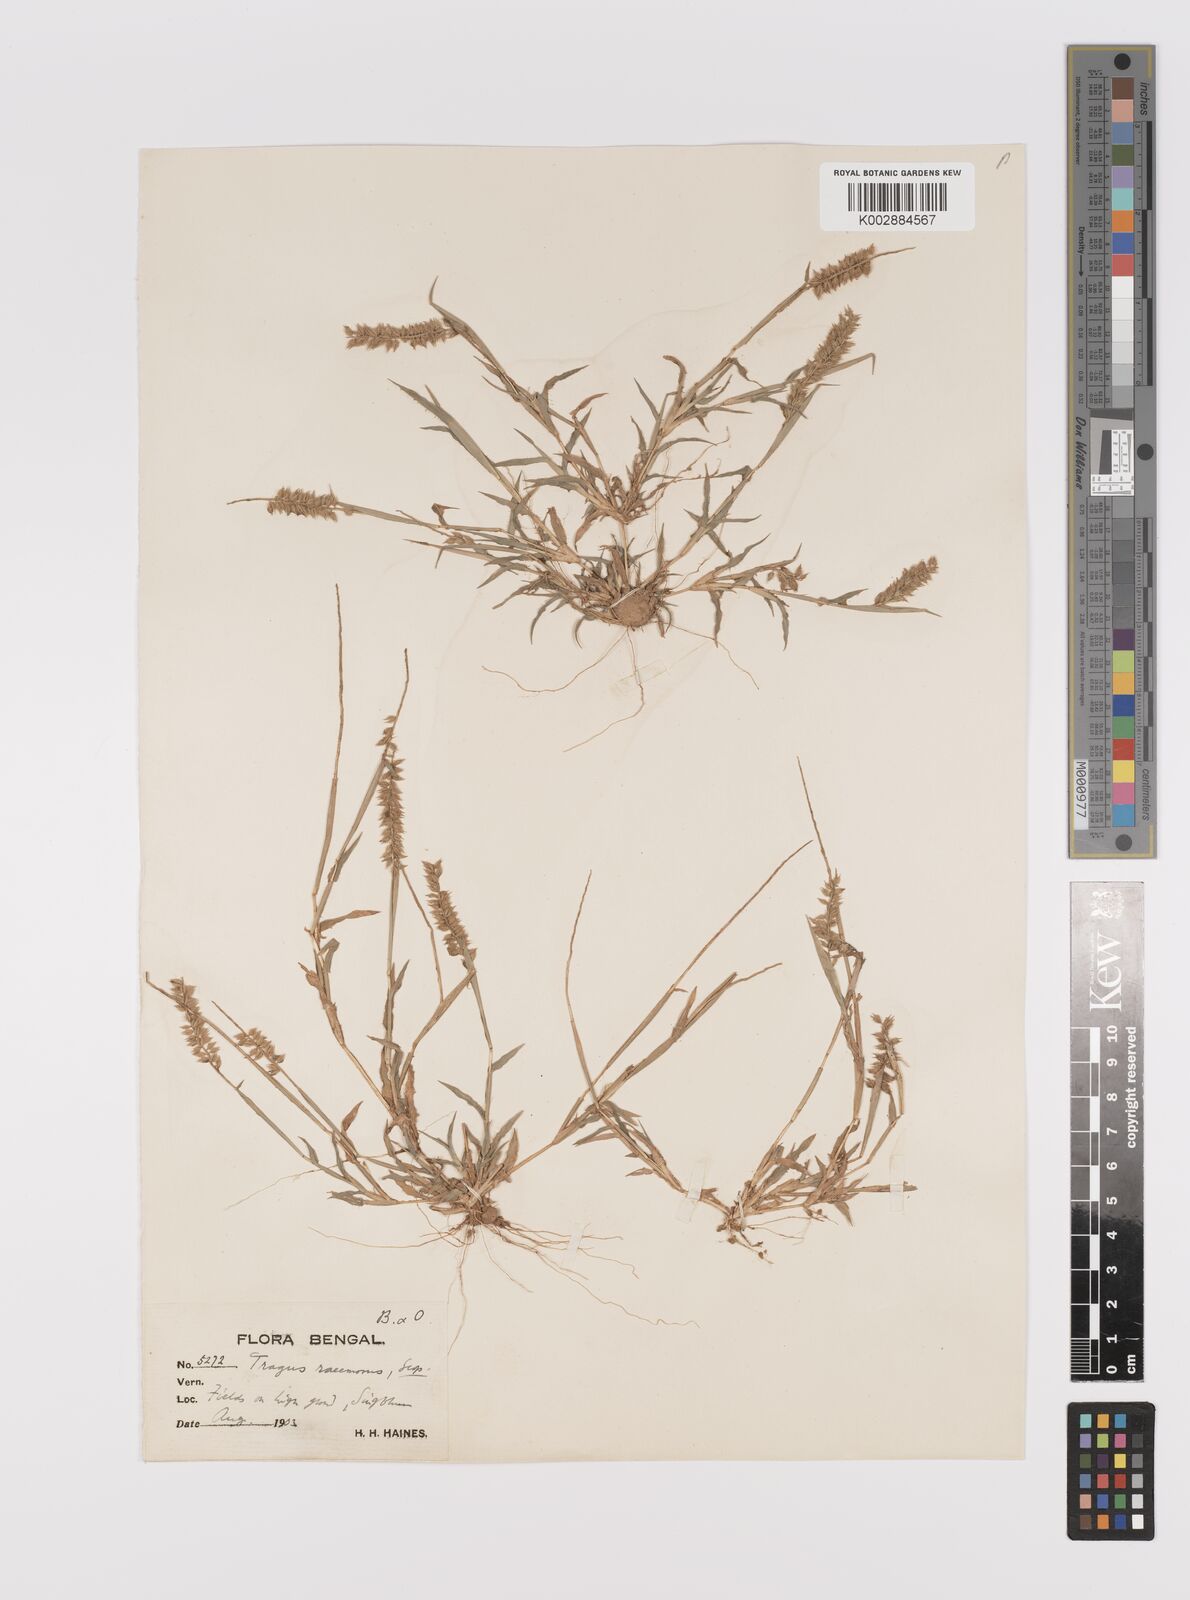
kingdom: Plantae
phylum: Tracheophyta
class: Liliopsida
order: Poales
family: Poaceae
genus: Tragus
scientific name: Tragus mongolorum
